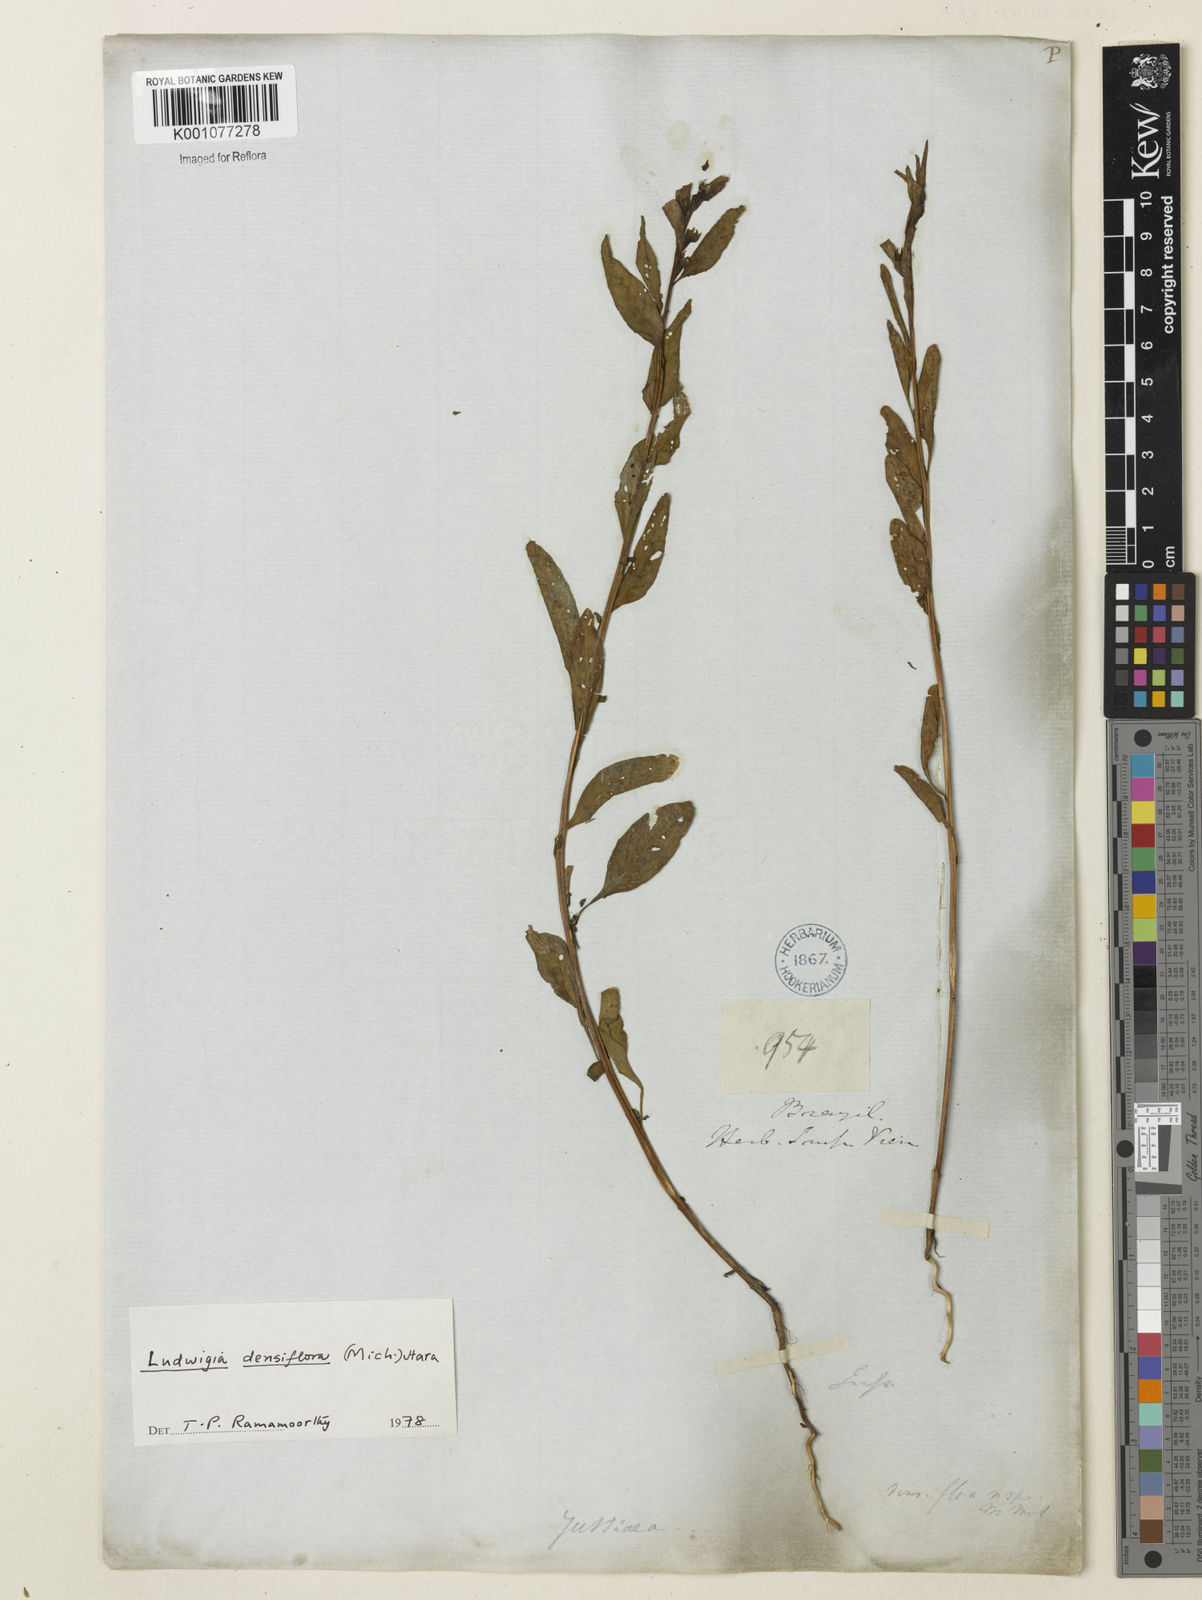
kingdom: Plantae
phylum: Tracheophyta
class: Magnoliopsida
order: Myrtales
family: Onagraceae
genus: Ludwigia
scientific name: Ludwigia densiflora
